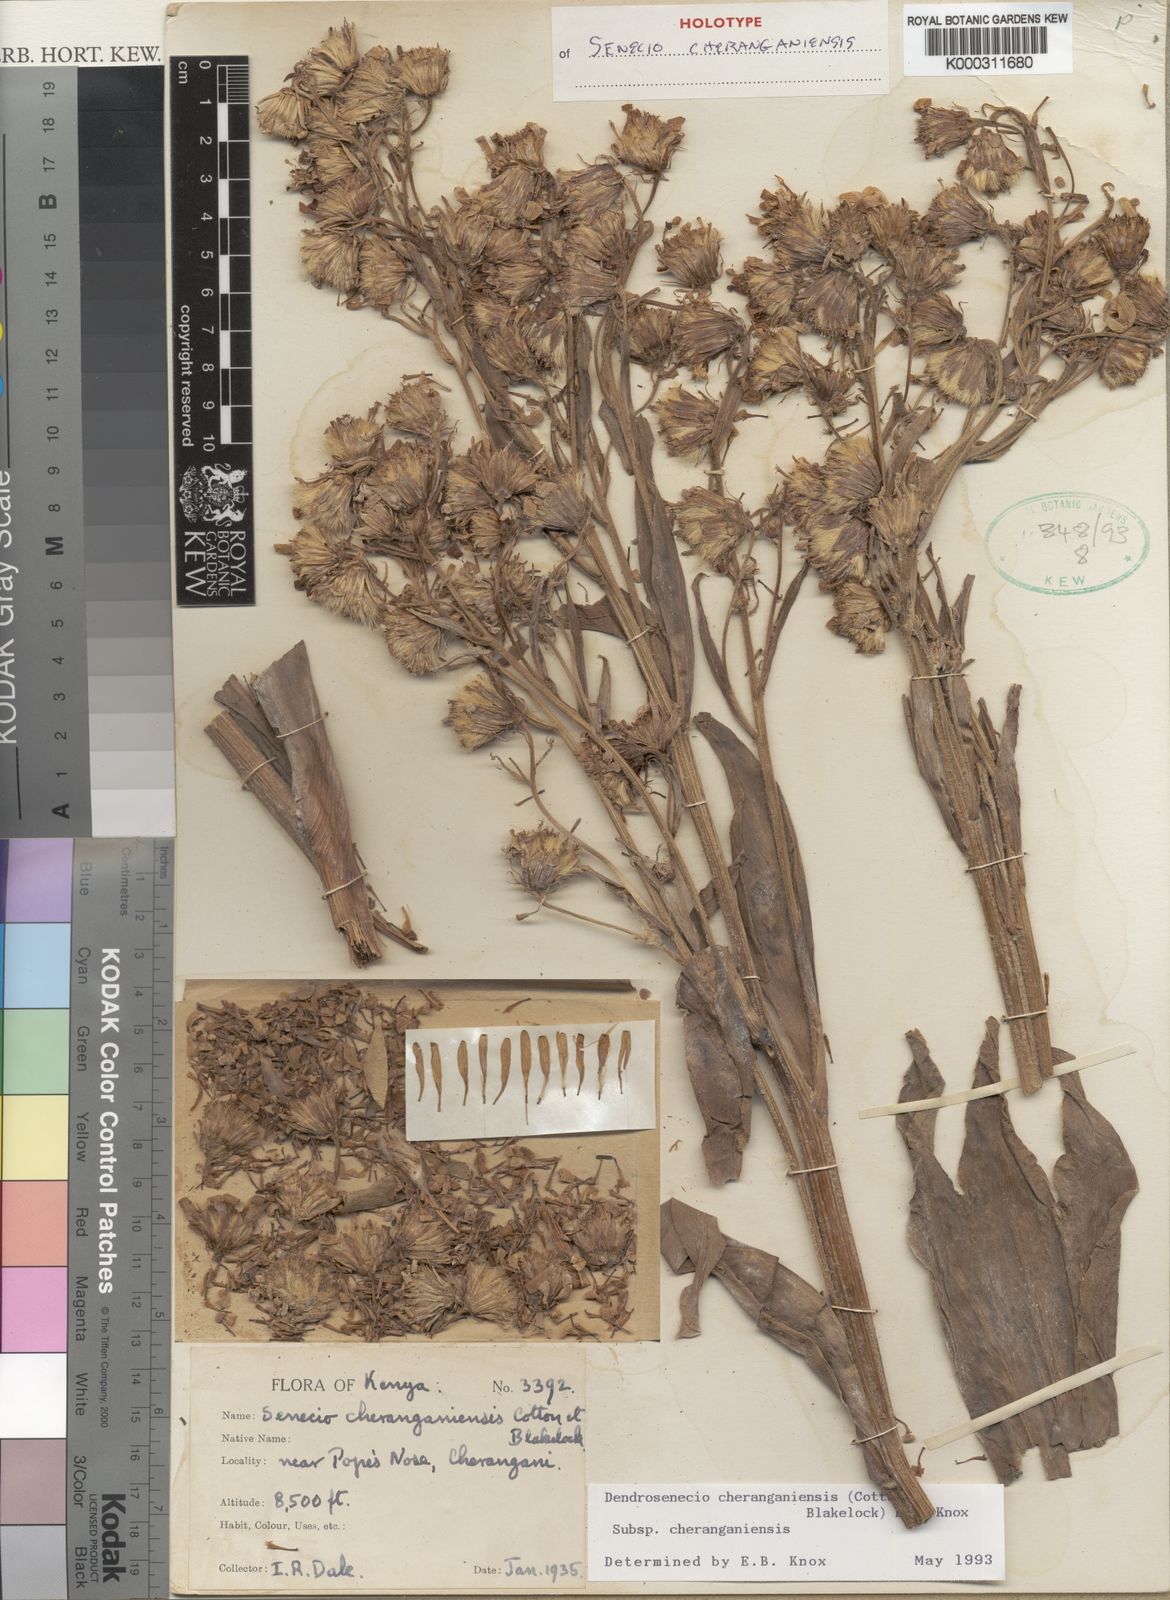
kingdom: Plantae
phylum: Tracheophyta
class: Magnoliopsida
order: Asterales
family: Asteraceae
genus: Dendrosenecio
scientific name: Dendrosenecio cheranganiensis
